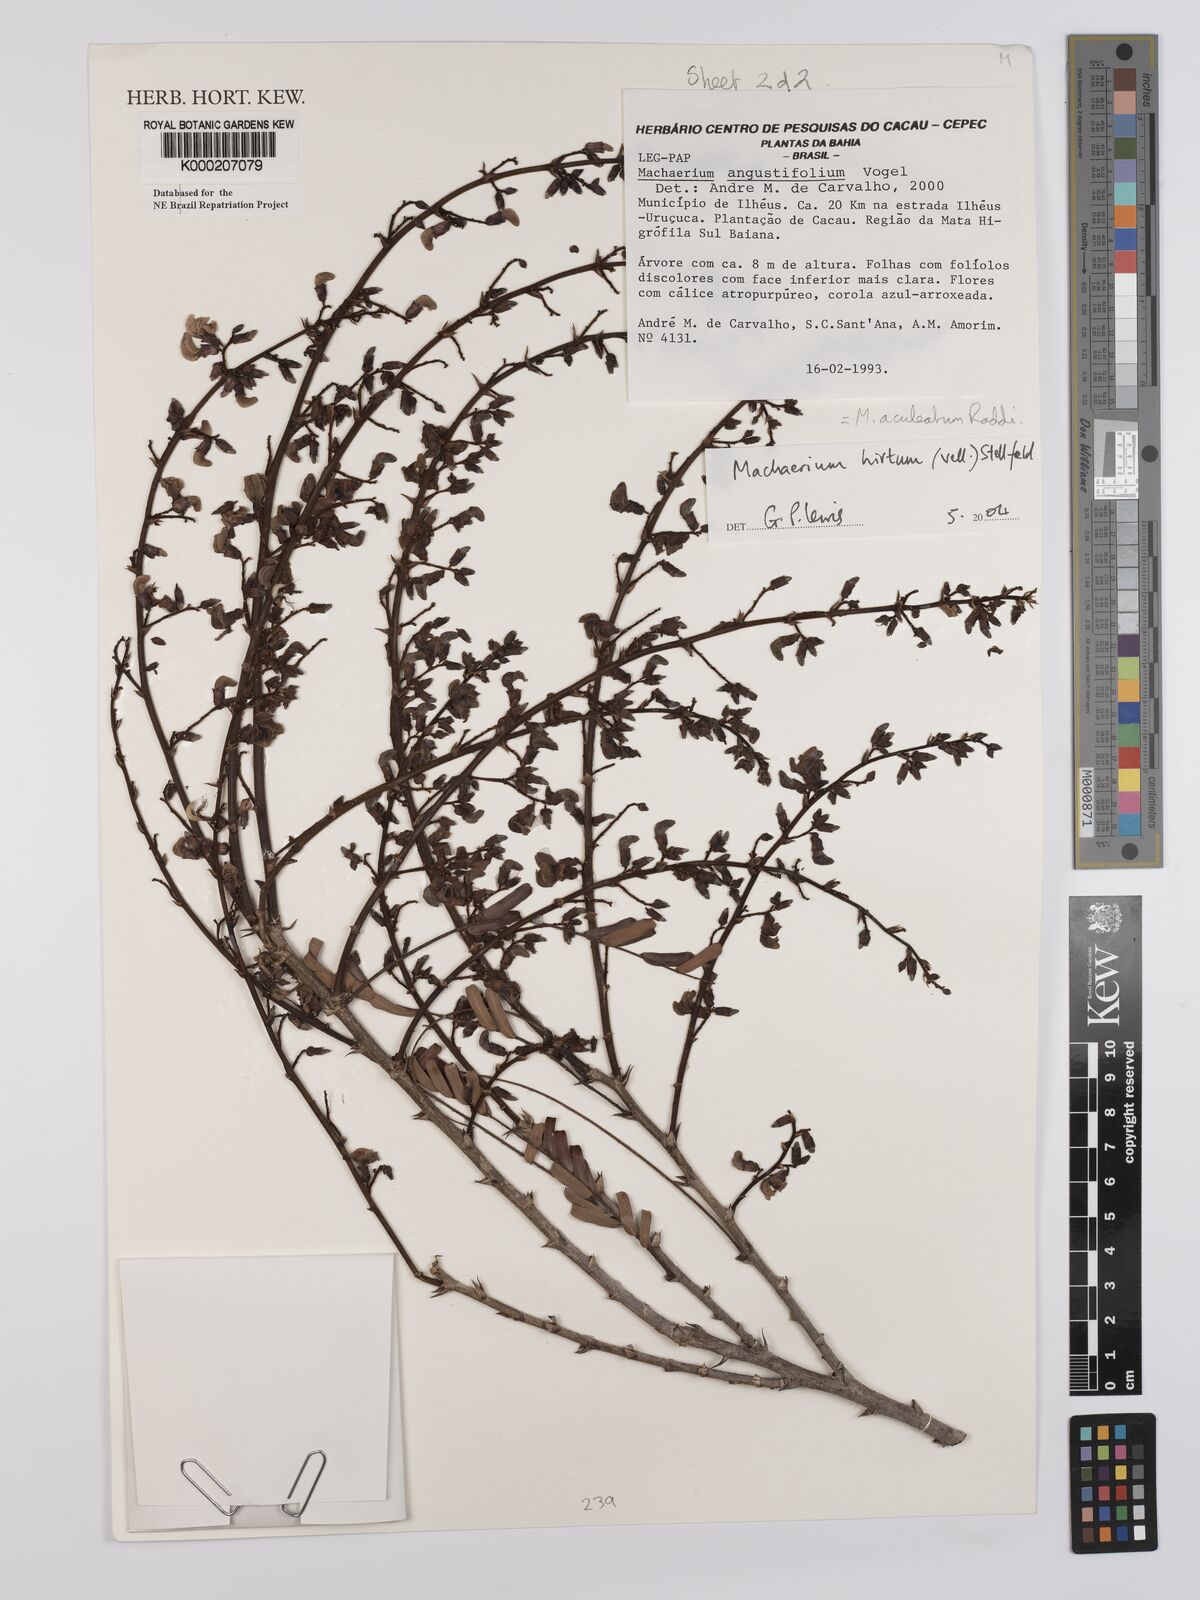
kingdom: Plantae
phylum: Tracheophyta
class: Magnoliopsida
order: Fabales
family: Fabaceae
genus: Machaerium
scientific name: Machaerium hirtum
